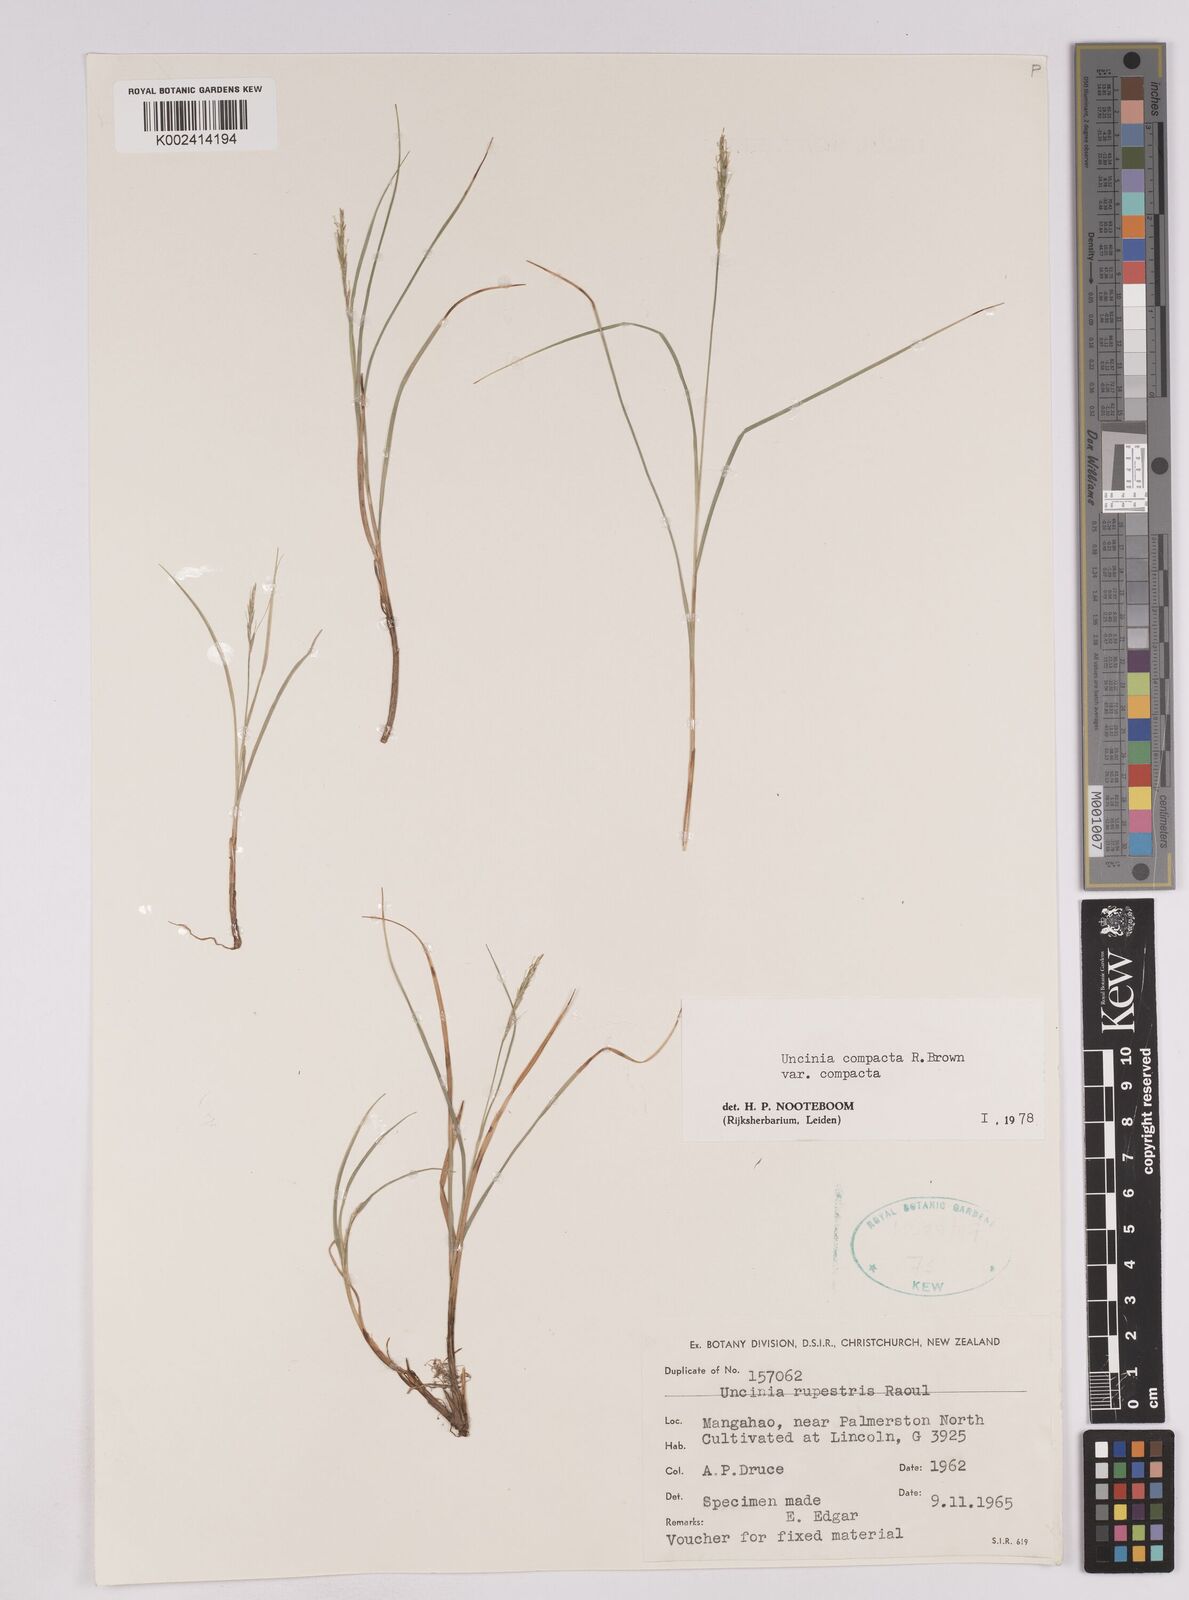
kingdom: Plantae
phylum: Tracheophyta
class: Liliopsida
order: Poales
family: Cyperaceae
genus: Carex
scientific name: Carex austrocompacta
